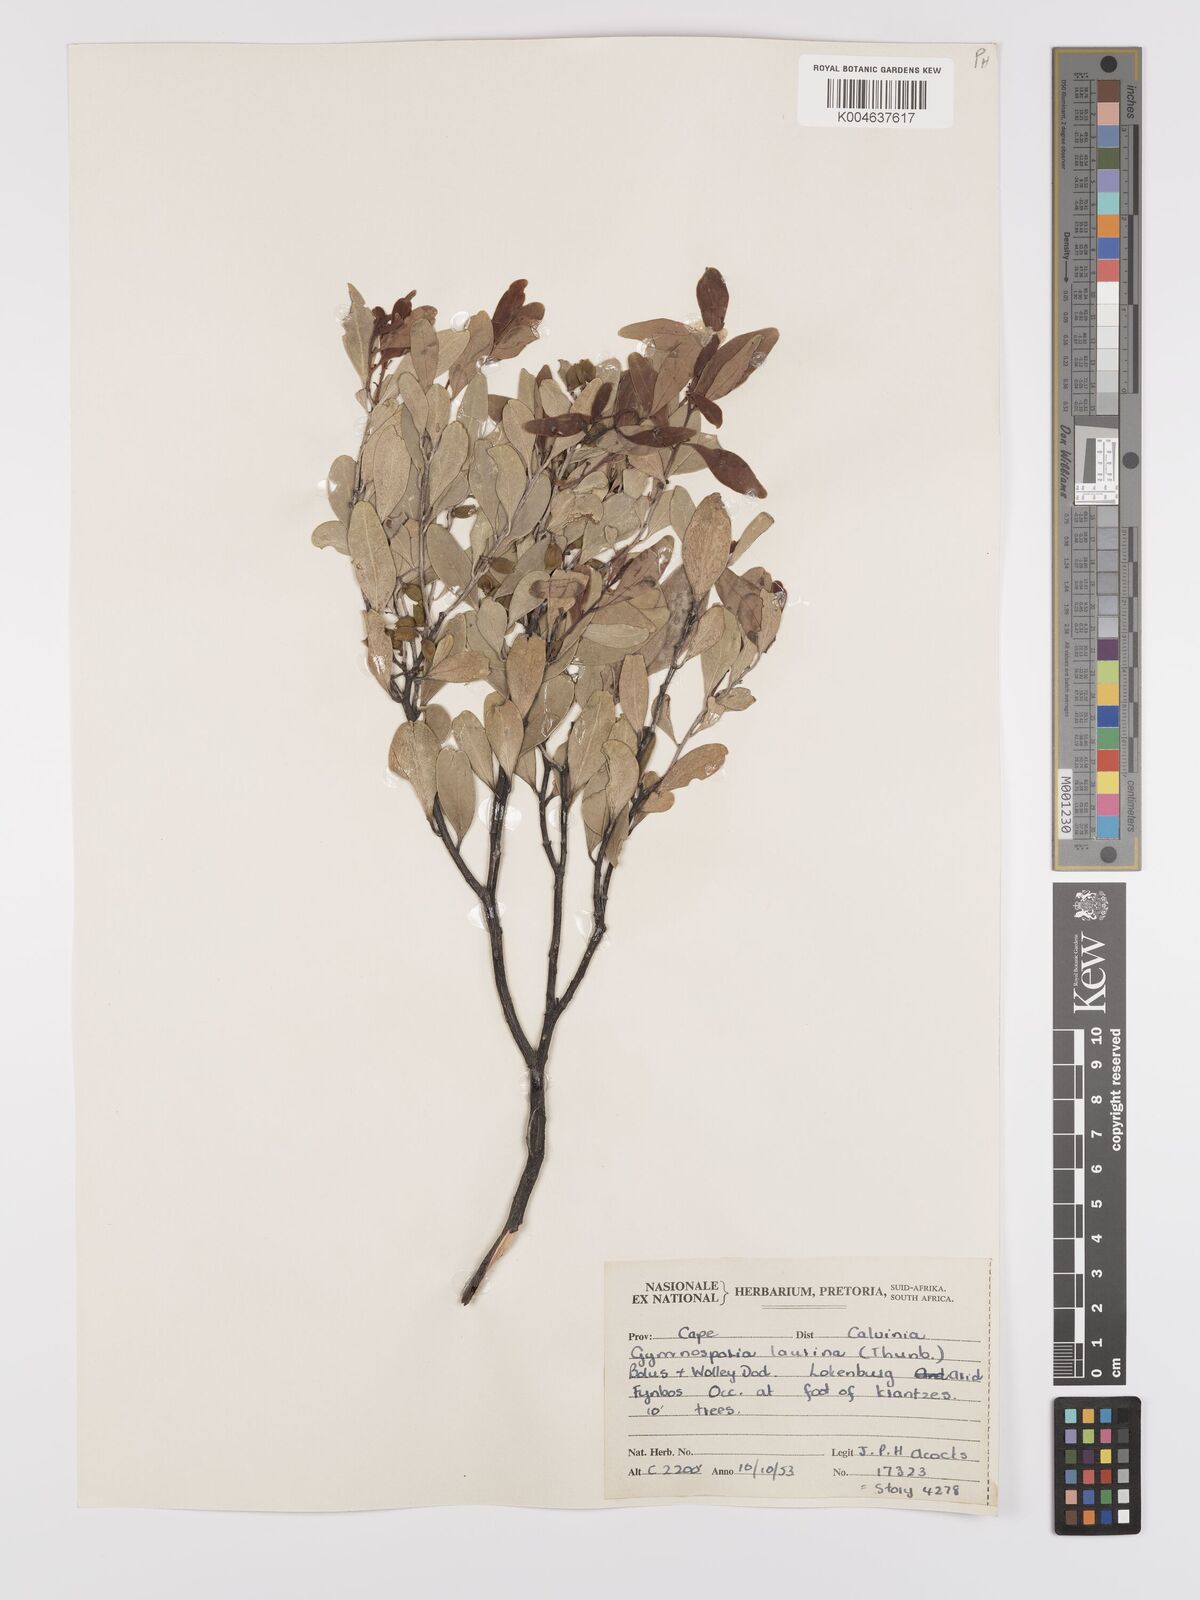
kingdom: Plantae
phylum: Tracheophyta
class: Magnoliopsida
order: Celastrales
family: Celastraceae
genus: Monteverdia
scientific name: Monteverdia laurina
